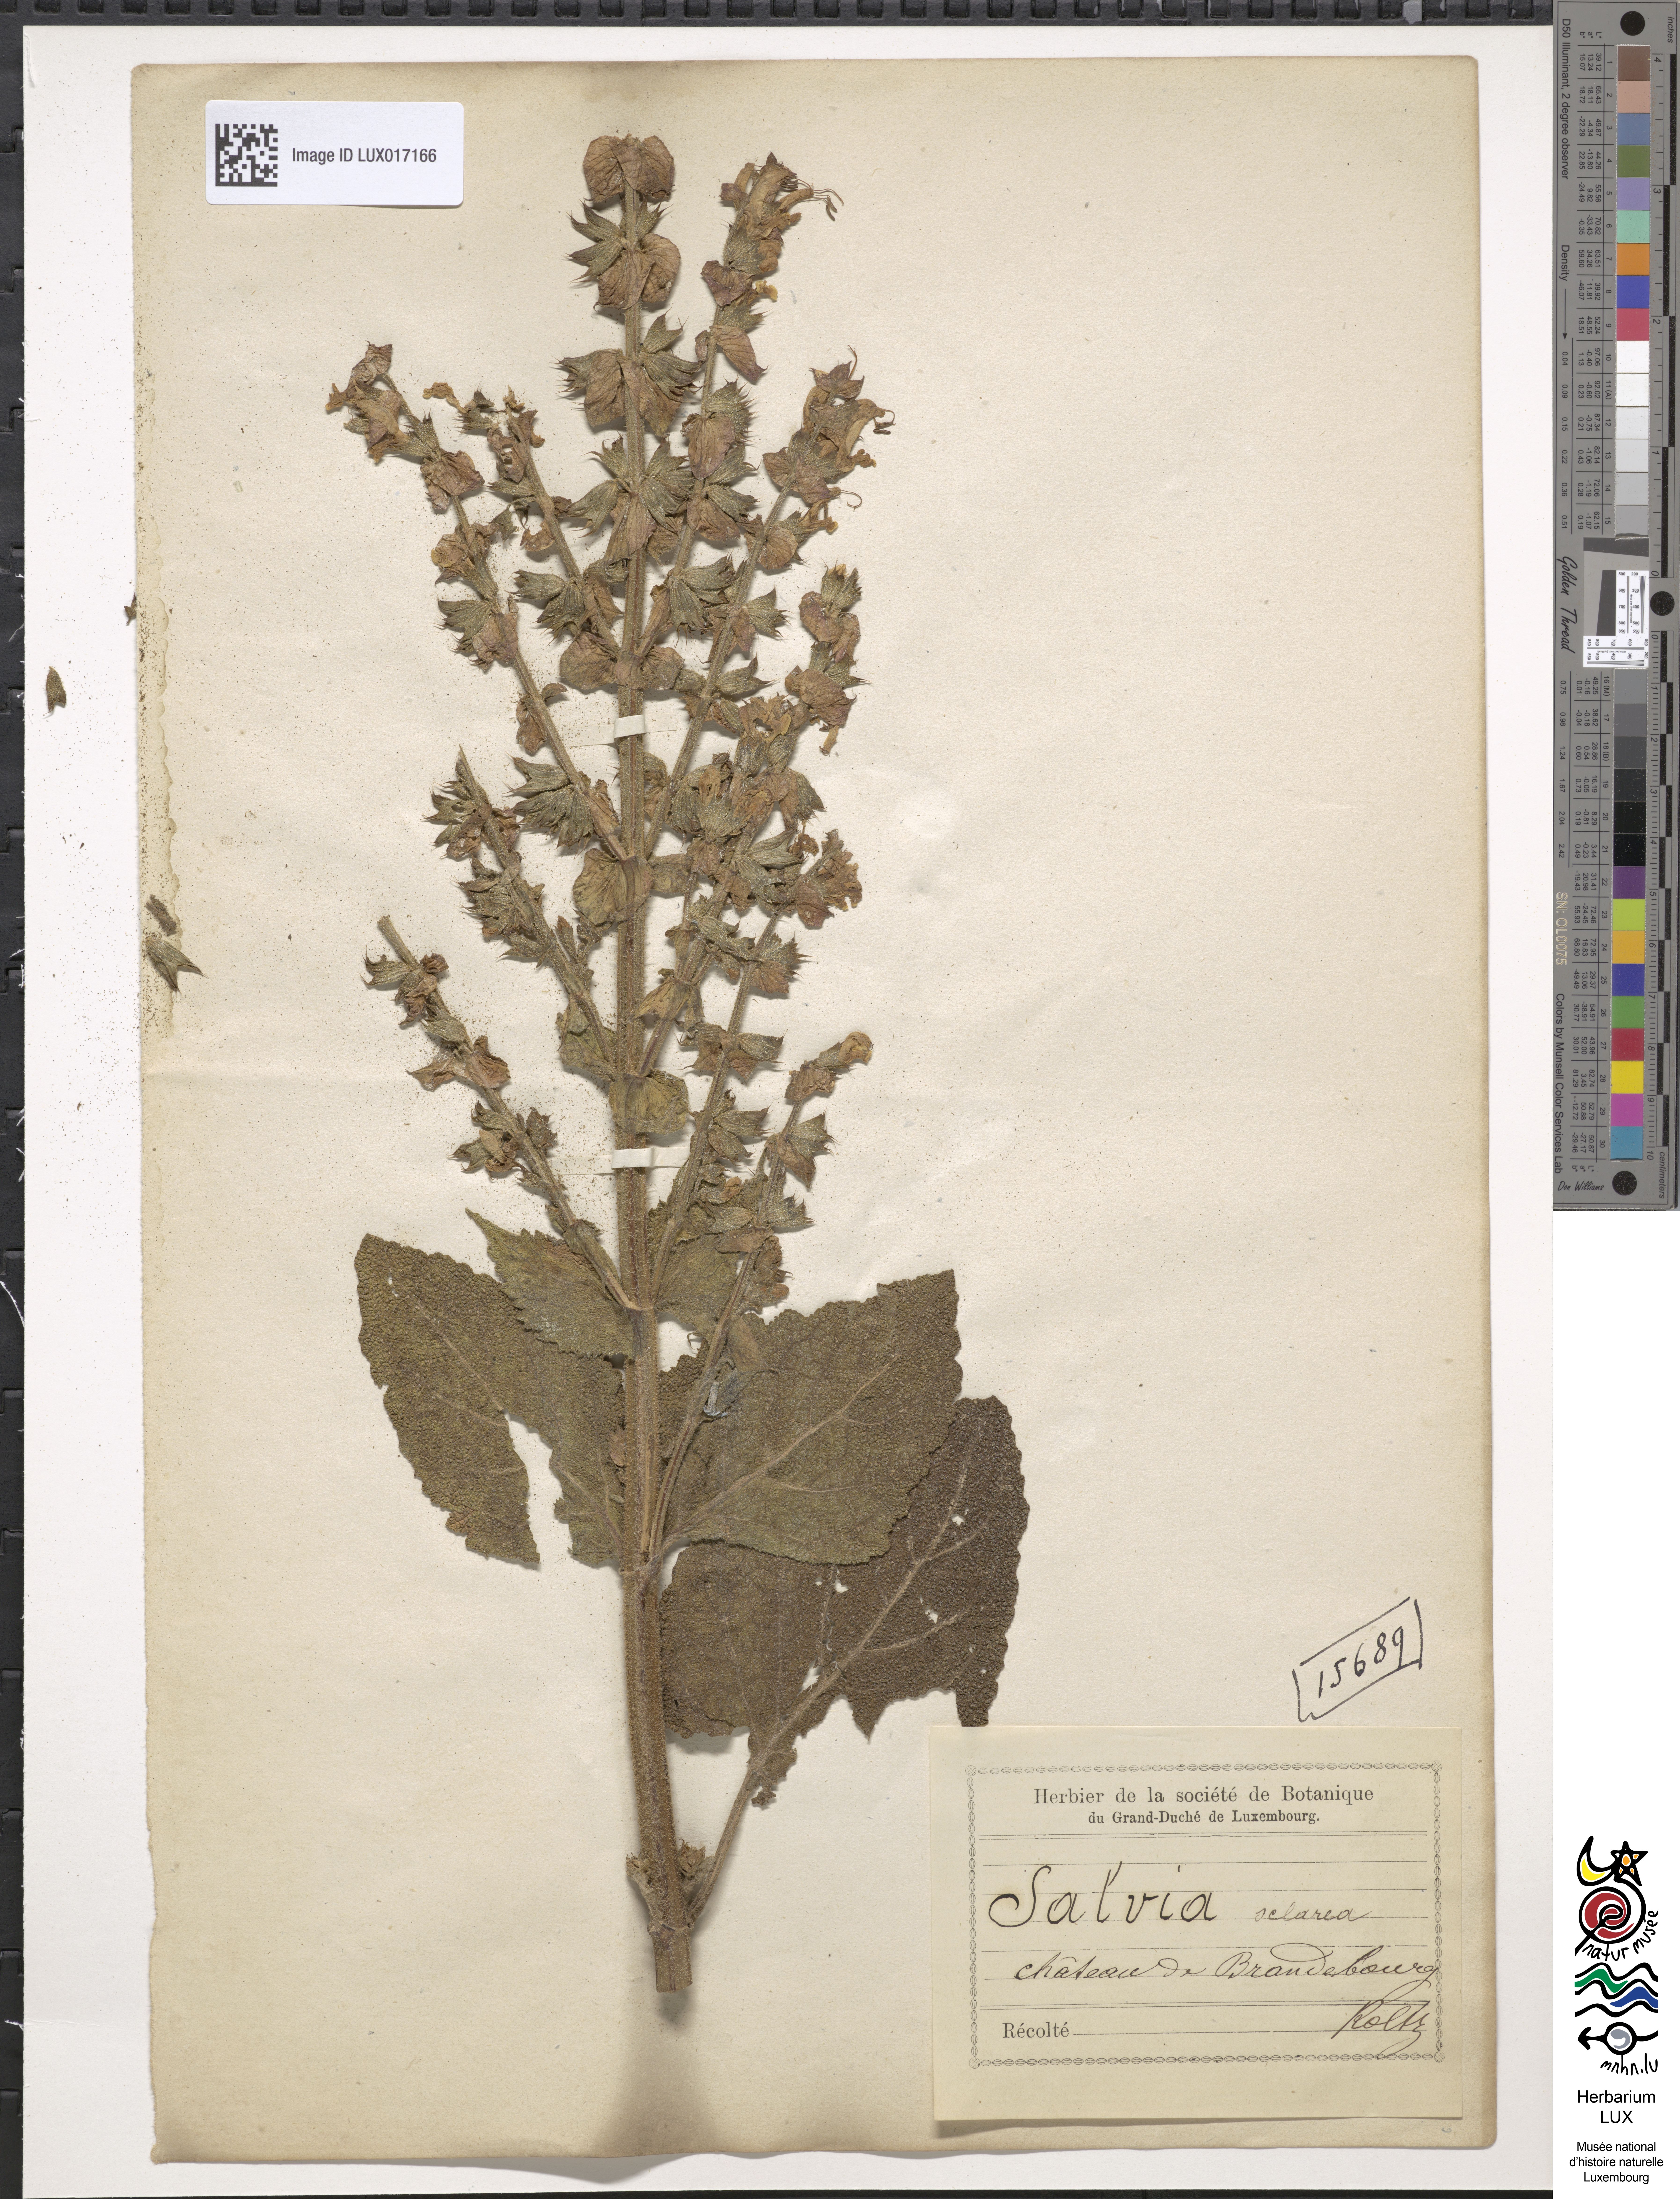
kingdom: Plantae
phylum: Tracheophyta
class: Magnoliopsida
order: Lamiales
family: Lamiaceae
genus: Salvia
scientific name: Salvia sclarea
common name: Clary
